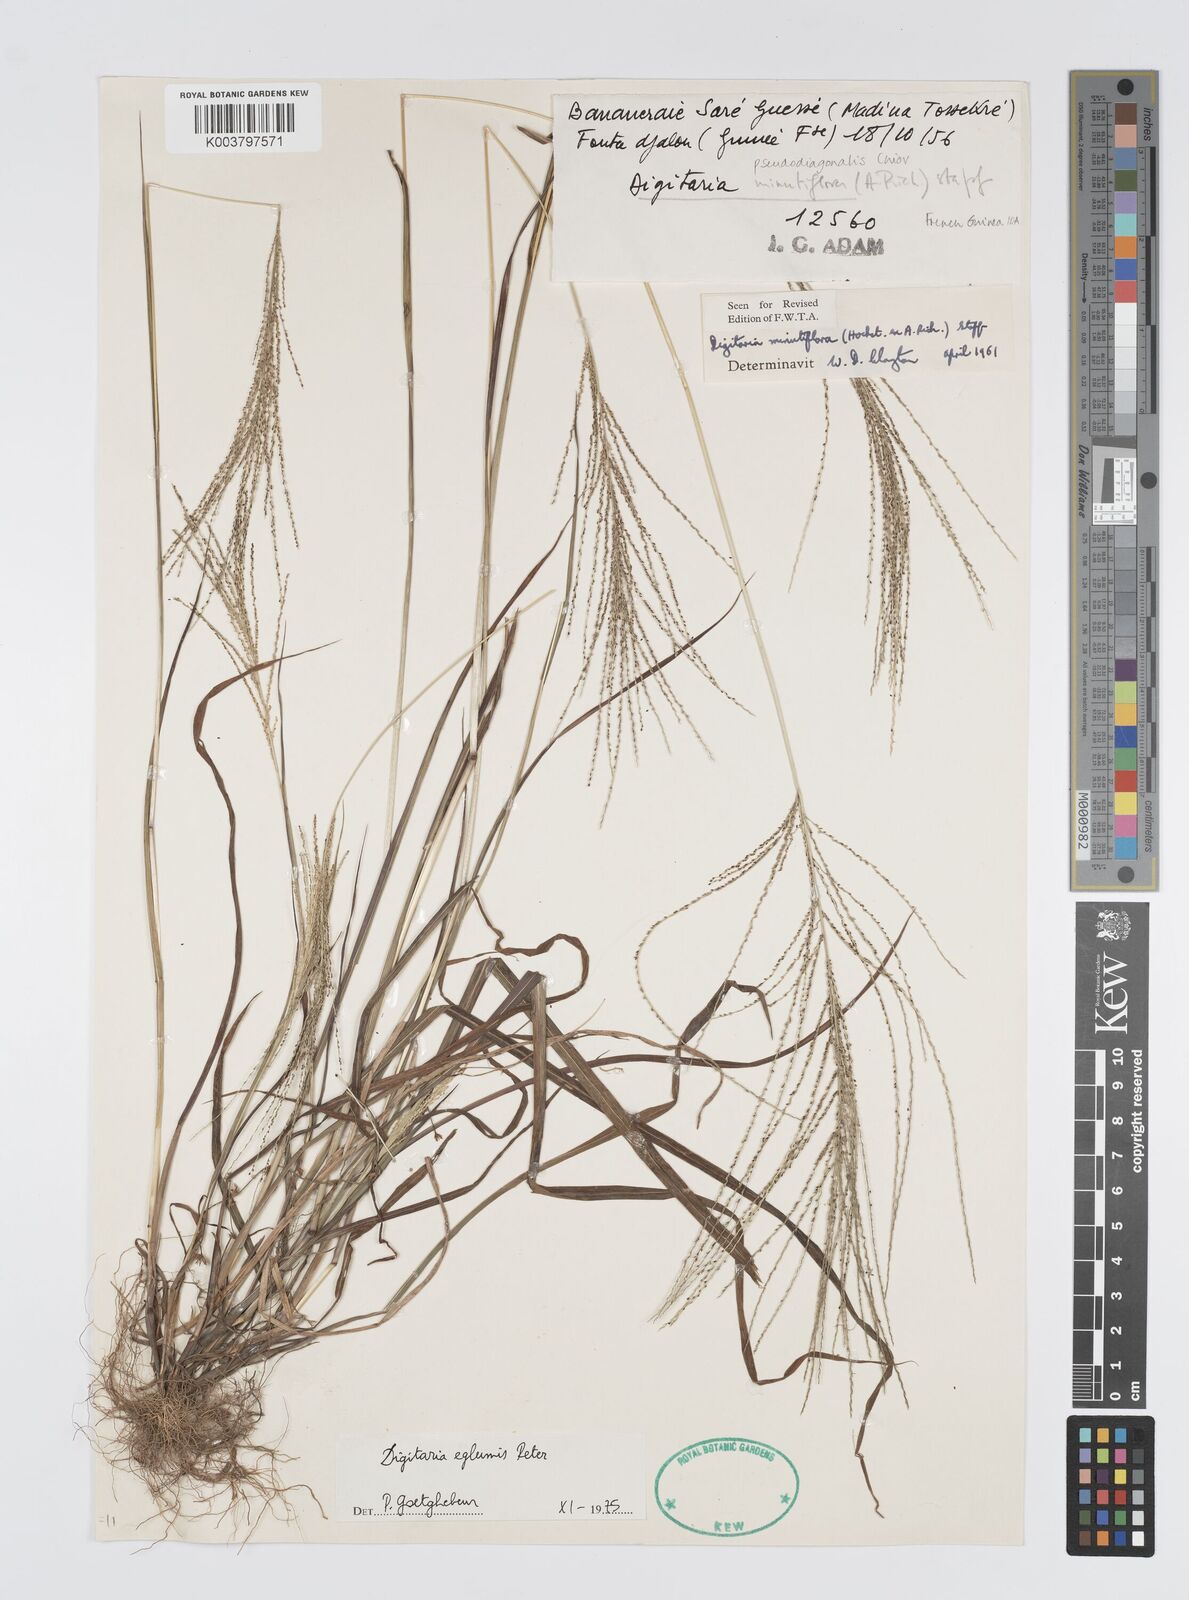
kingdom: Plantae
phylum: Tracheophyta
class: Liliopsida
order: Poales
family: Poaceae
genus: Digitaria
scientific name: Digitaria pseudodiagonalis
